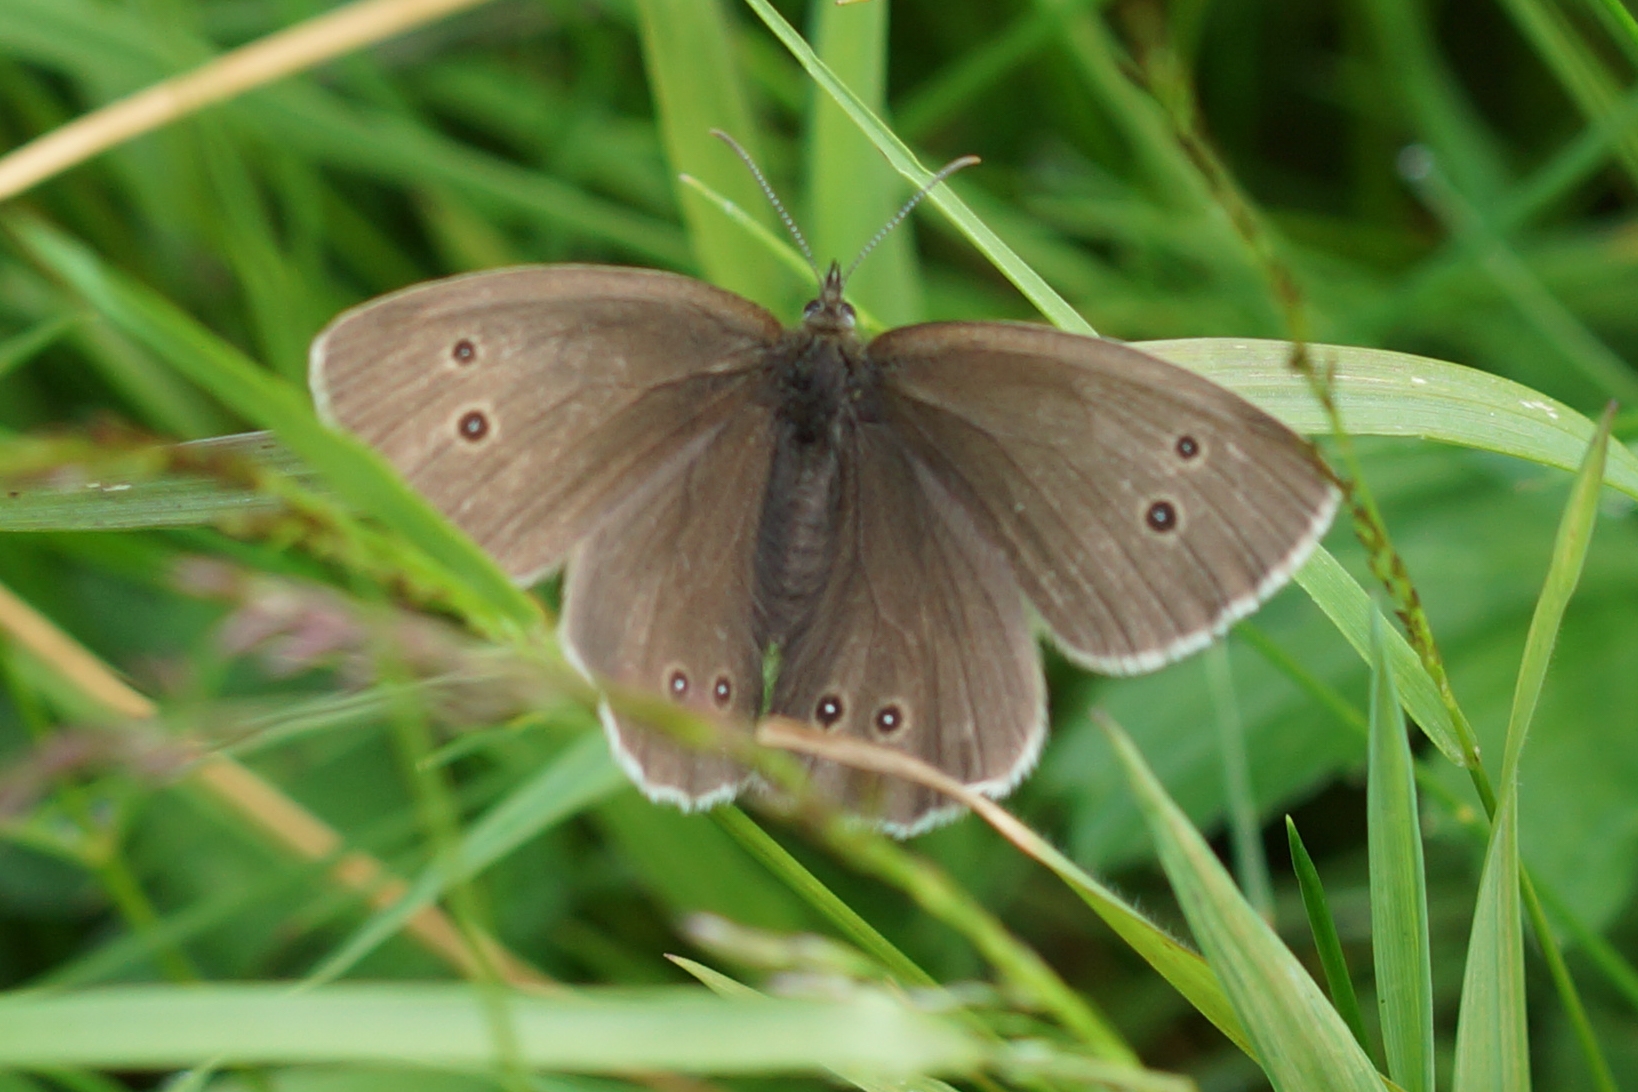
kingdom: Animalia
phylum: Arthropoda
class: Insecta
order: Lepidoptera
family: Nymphalidae
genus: Aphantopus
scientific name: Aphantopus hyperantus
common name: Engrandøje
